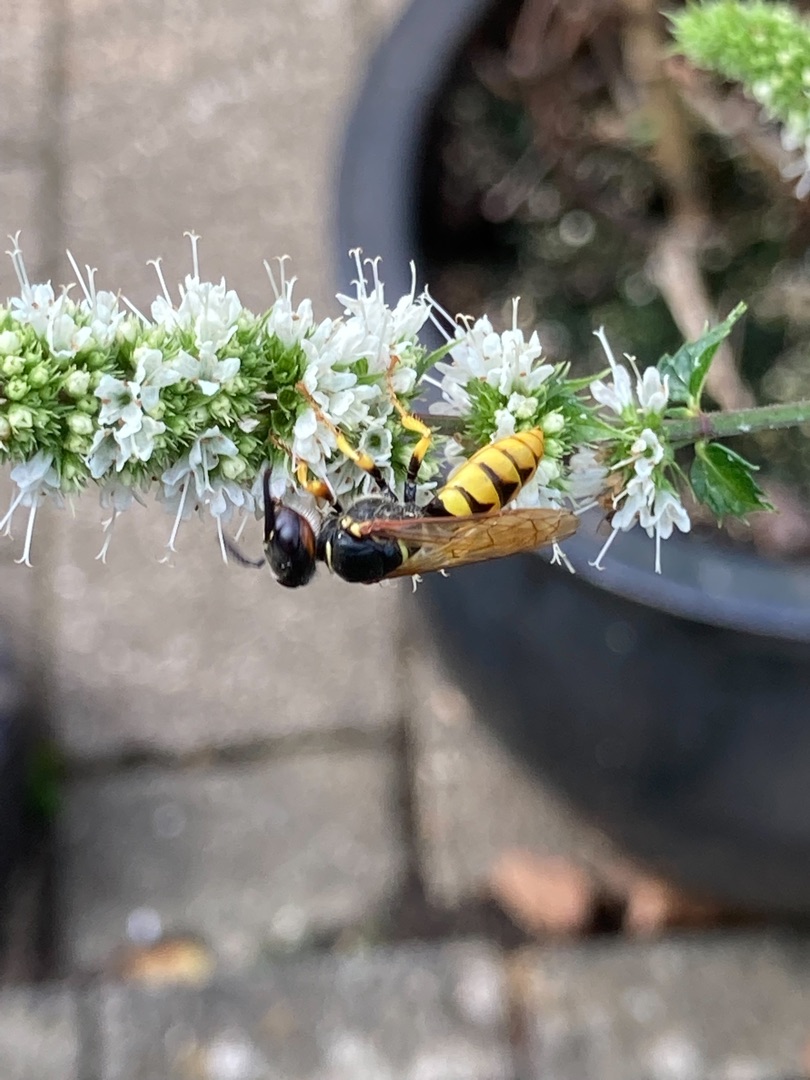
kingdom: Animalia
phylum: Arthropoda
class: Insecta
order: Hymenoptera
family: Crabronidae
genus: Philanthus
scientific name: Philanthus triangulum
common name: Biulv
